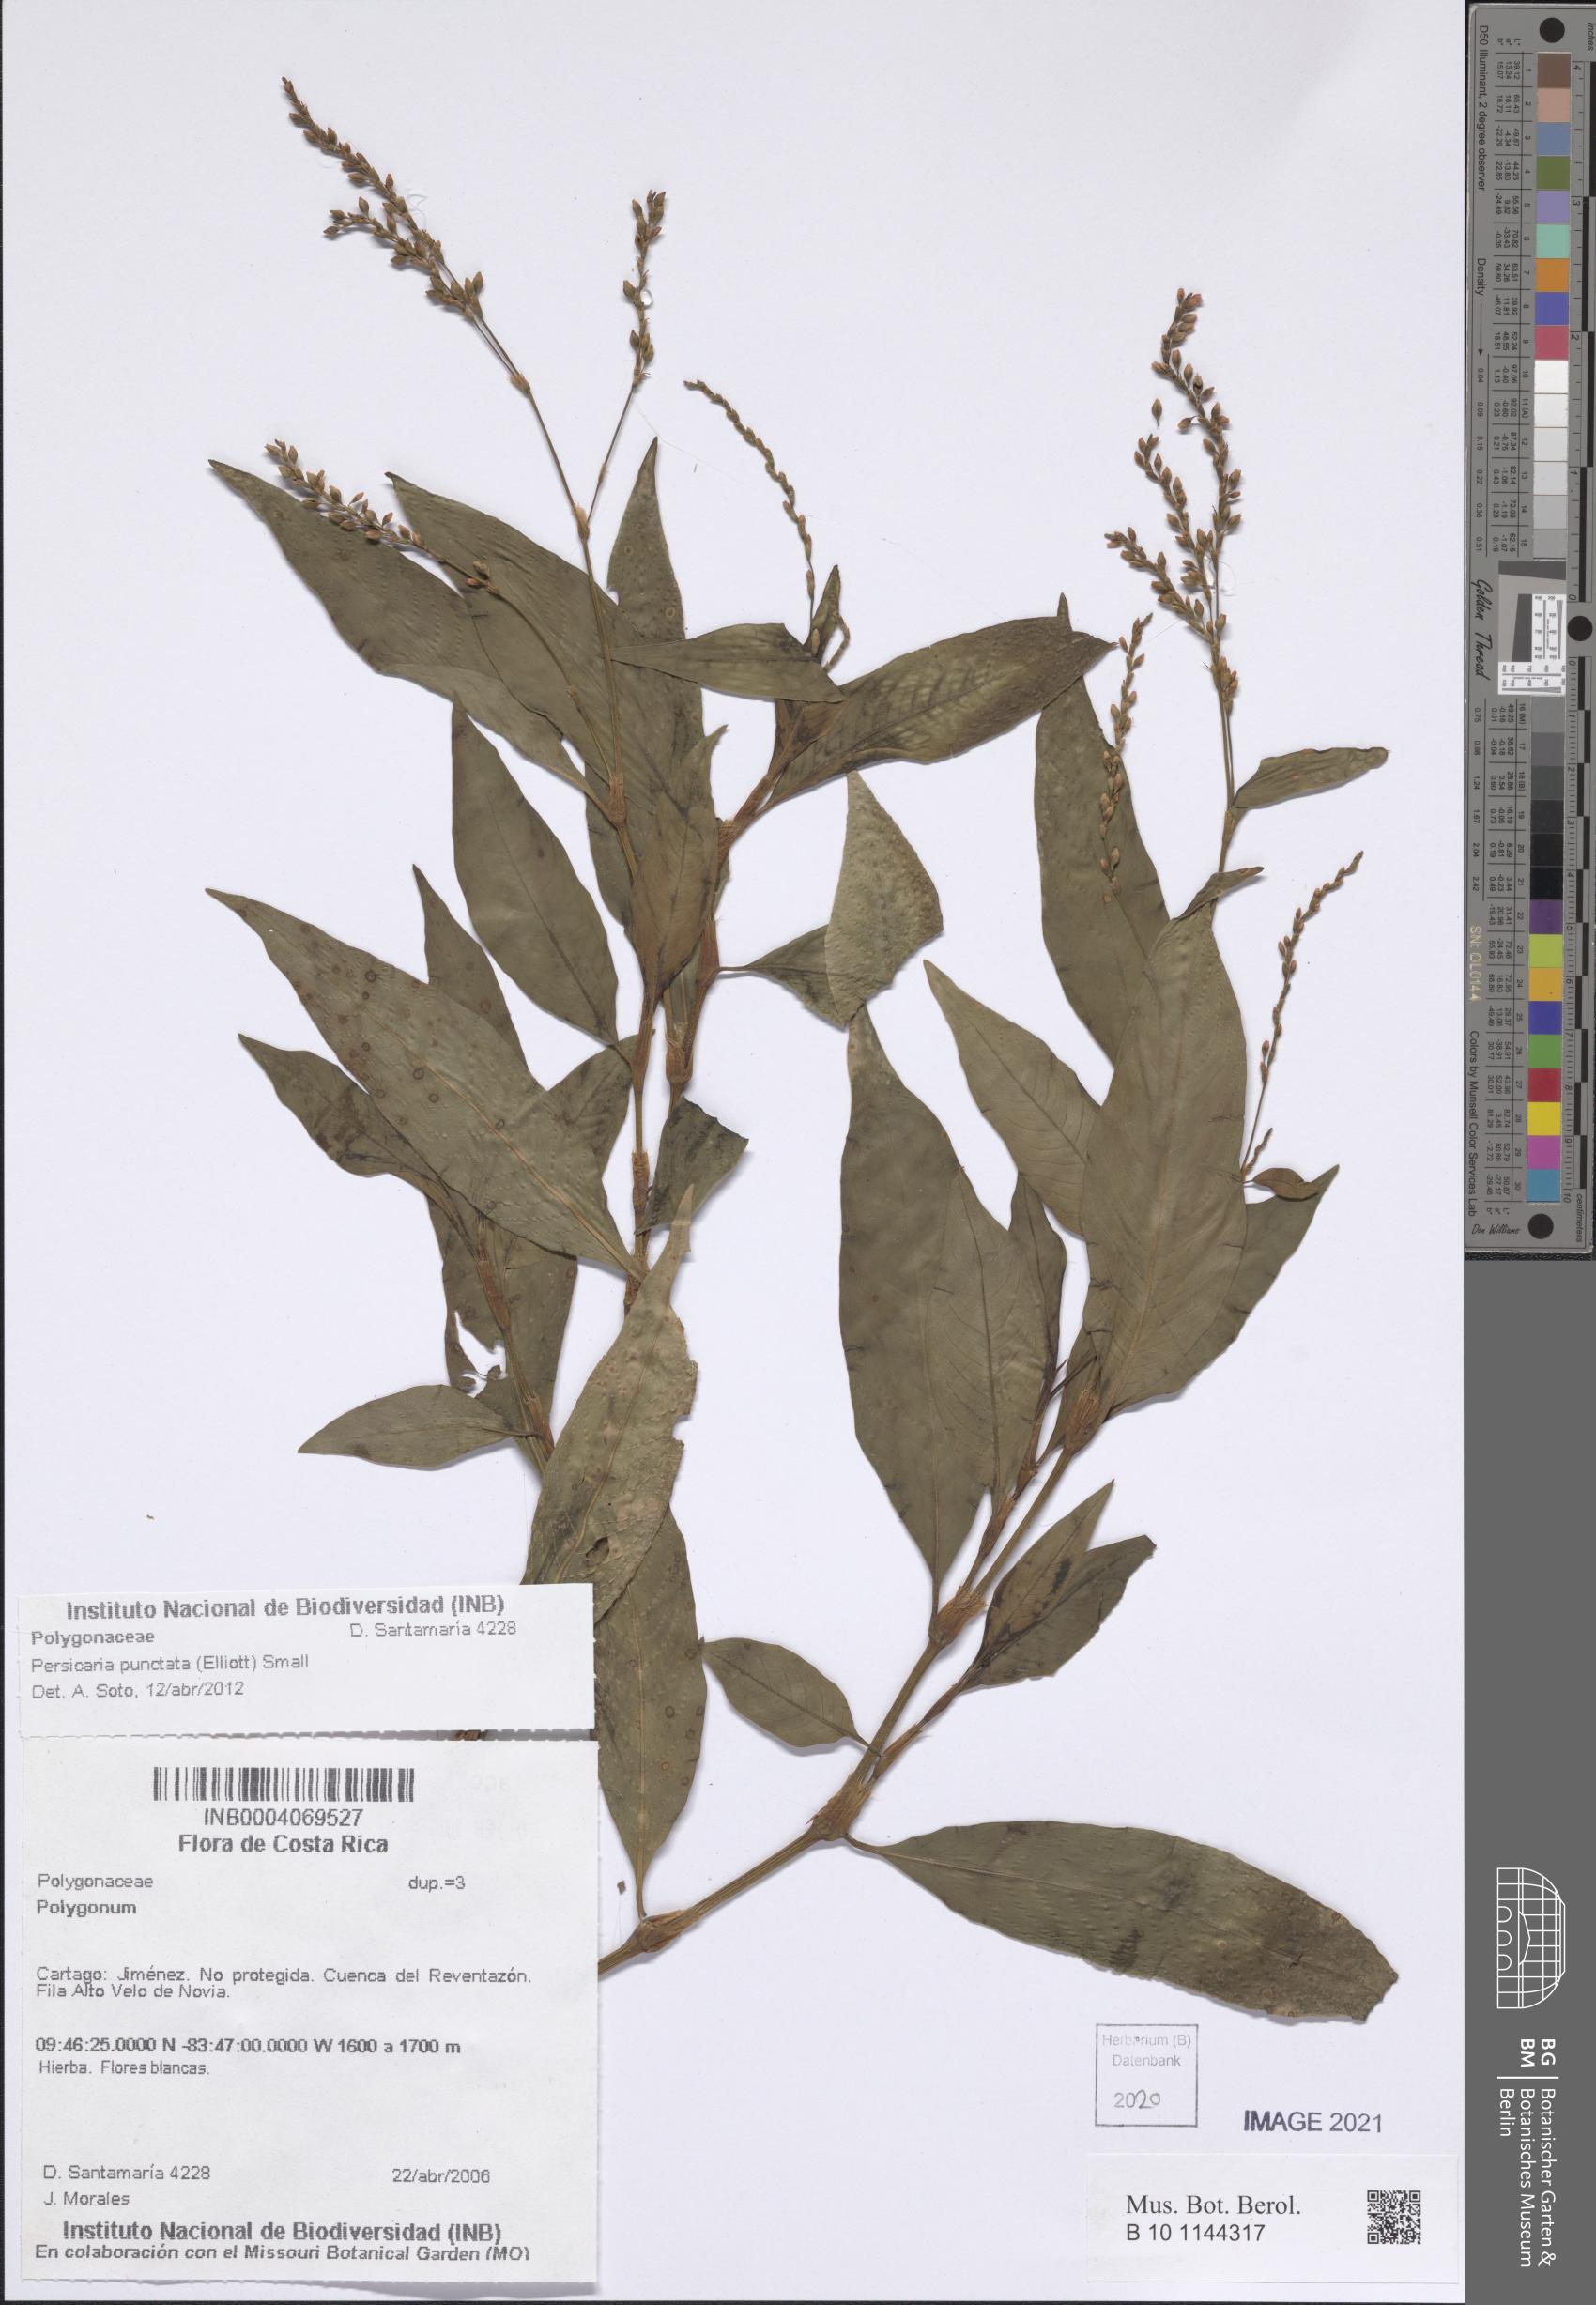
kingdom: Plantae
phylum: Tracheophyta
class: Magnoliopsida
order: Caryophyllales
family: Polygonaceae
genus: Persicaria
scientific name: Persicaria punctata
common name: Dotted smartweed
